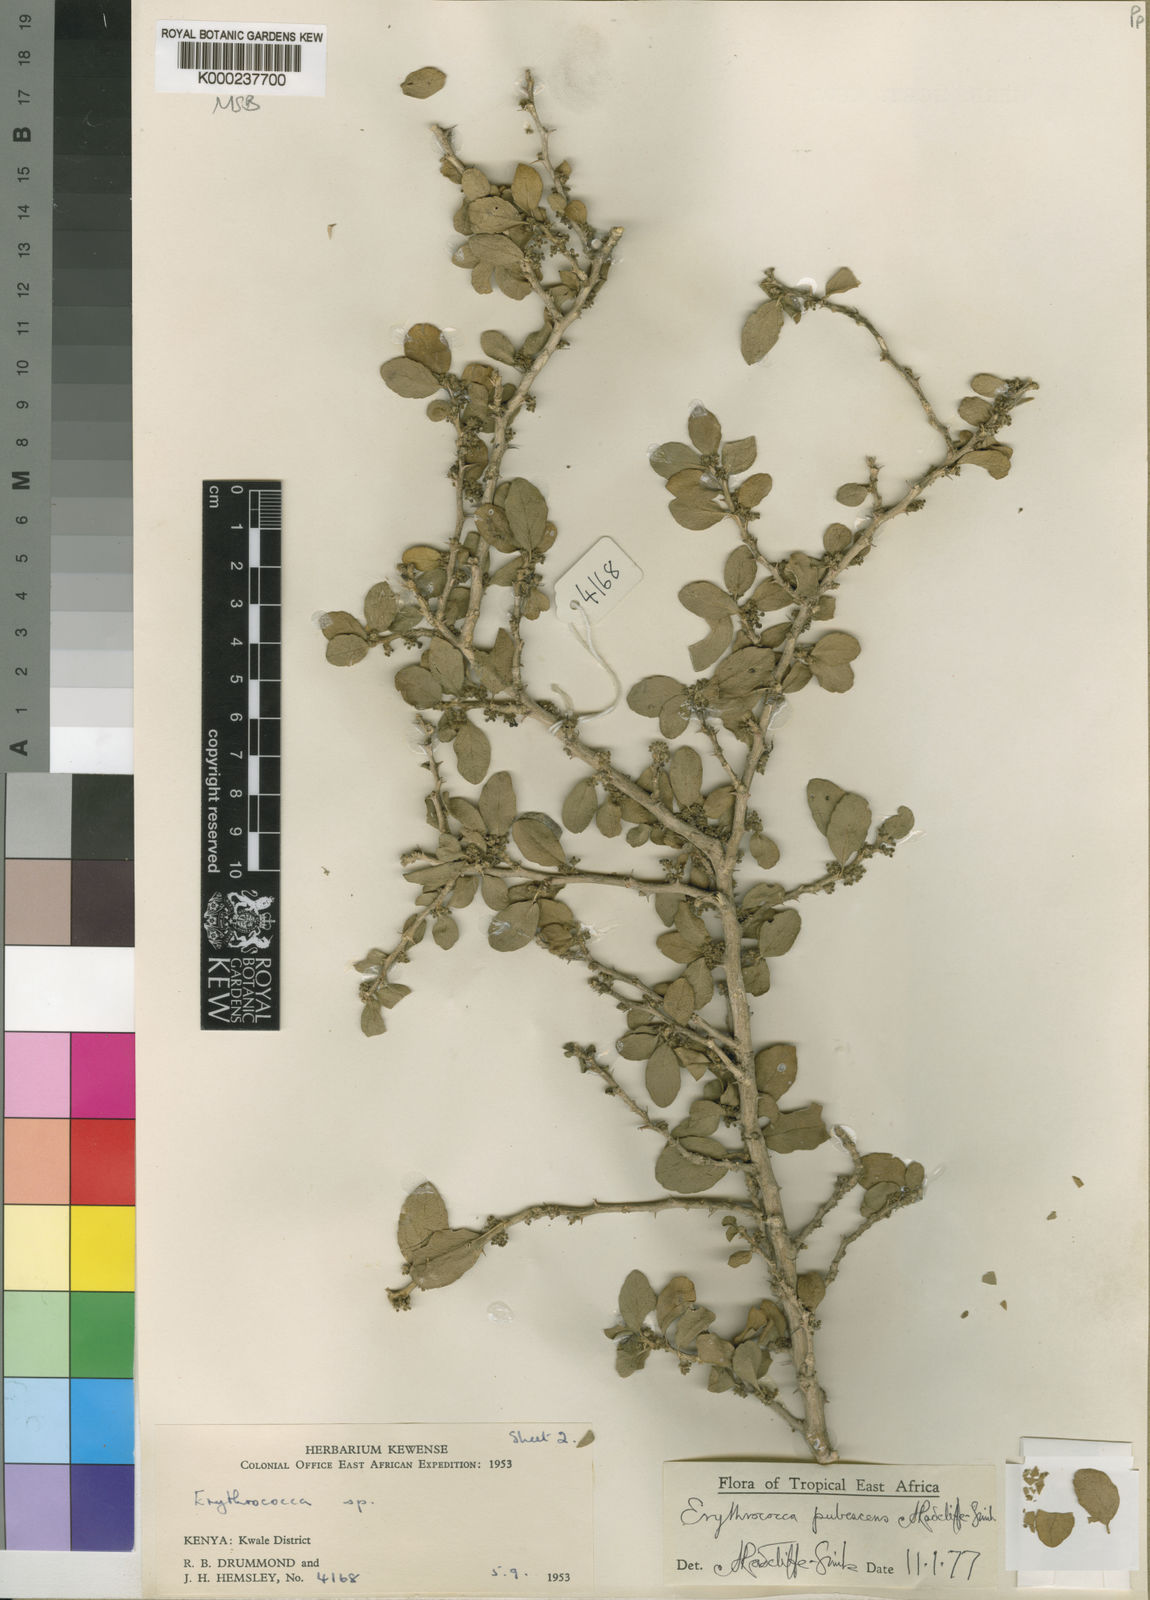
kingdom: Plantae
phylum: Tracheophyta
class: Magnoliopsida
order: Malpighiales
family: Euphorbiaceae
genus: Erythrococca
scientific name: Erythrococca
